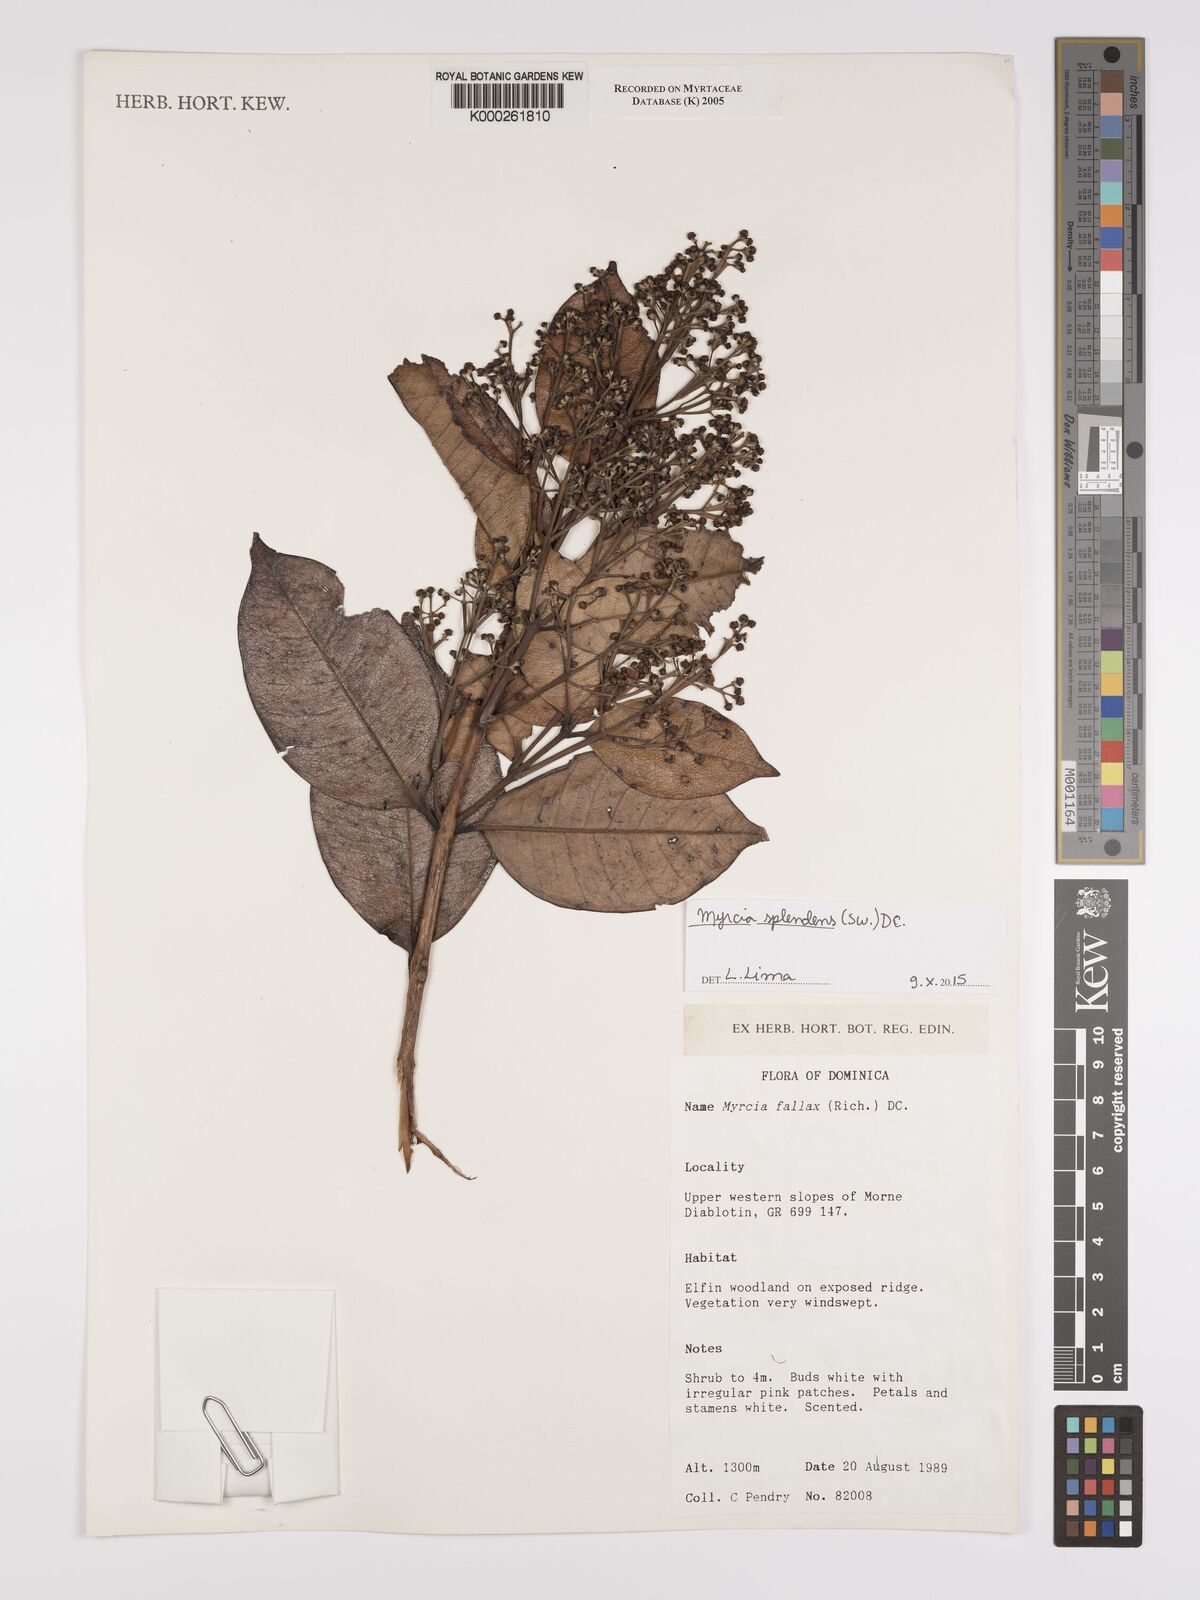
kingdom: Plantae
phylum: Tracheophyta
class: Magnoliopsida
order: Myrtales
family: Myrtaceae
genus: Myrcia
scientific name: Myrcia splendens
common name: Surinam cherry
